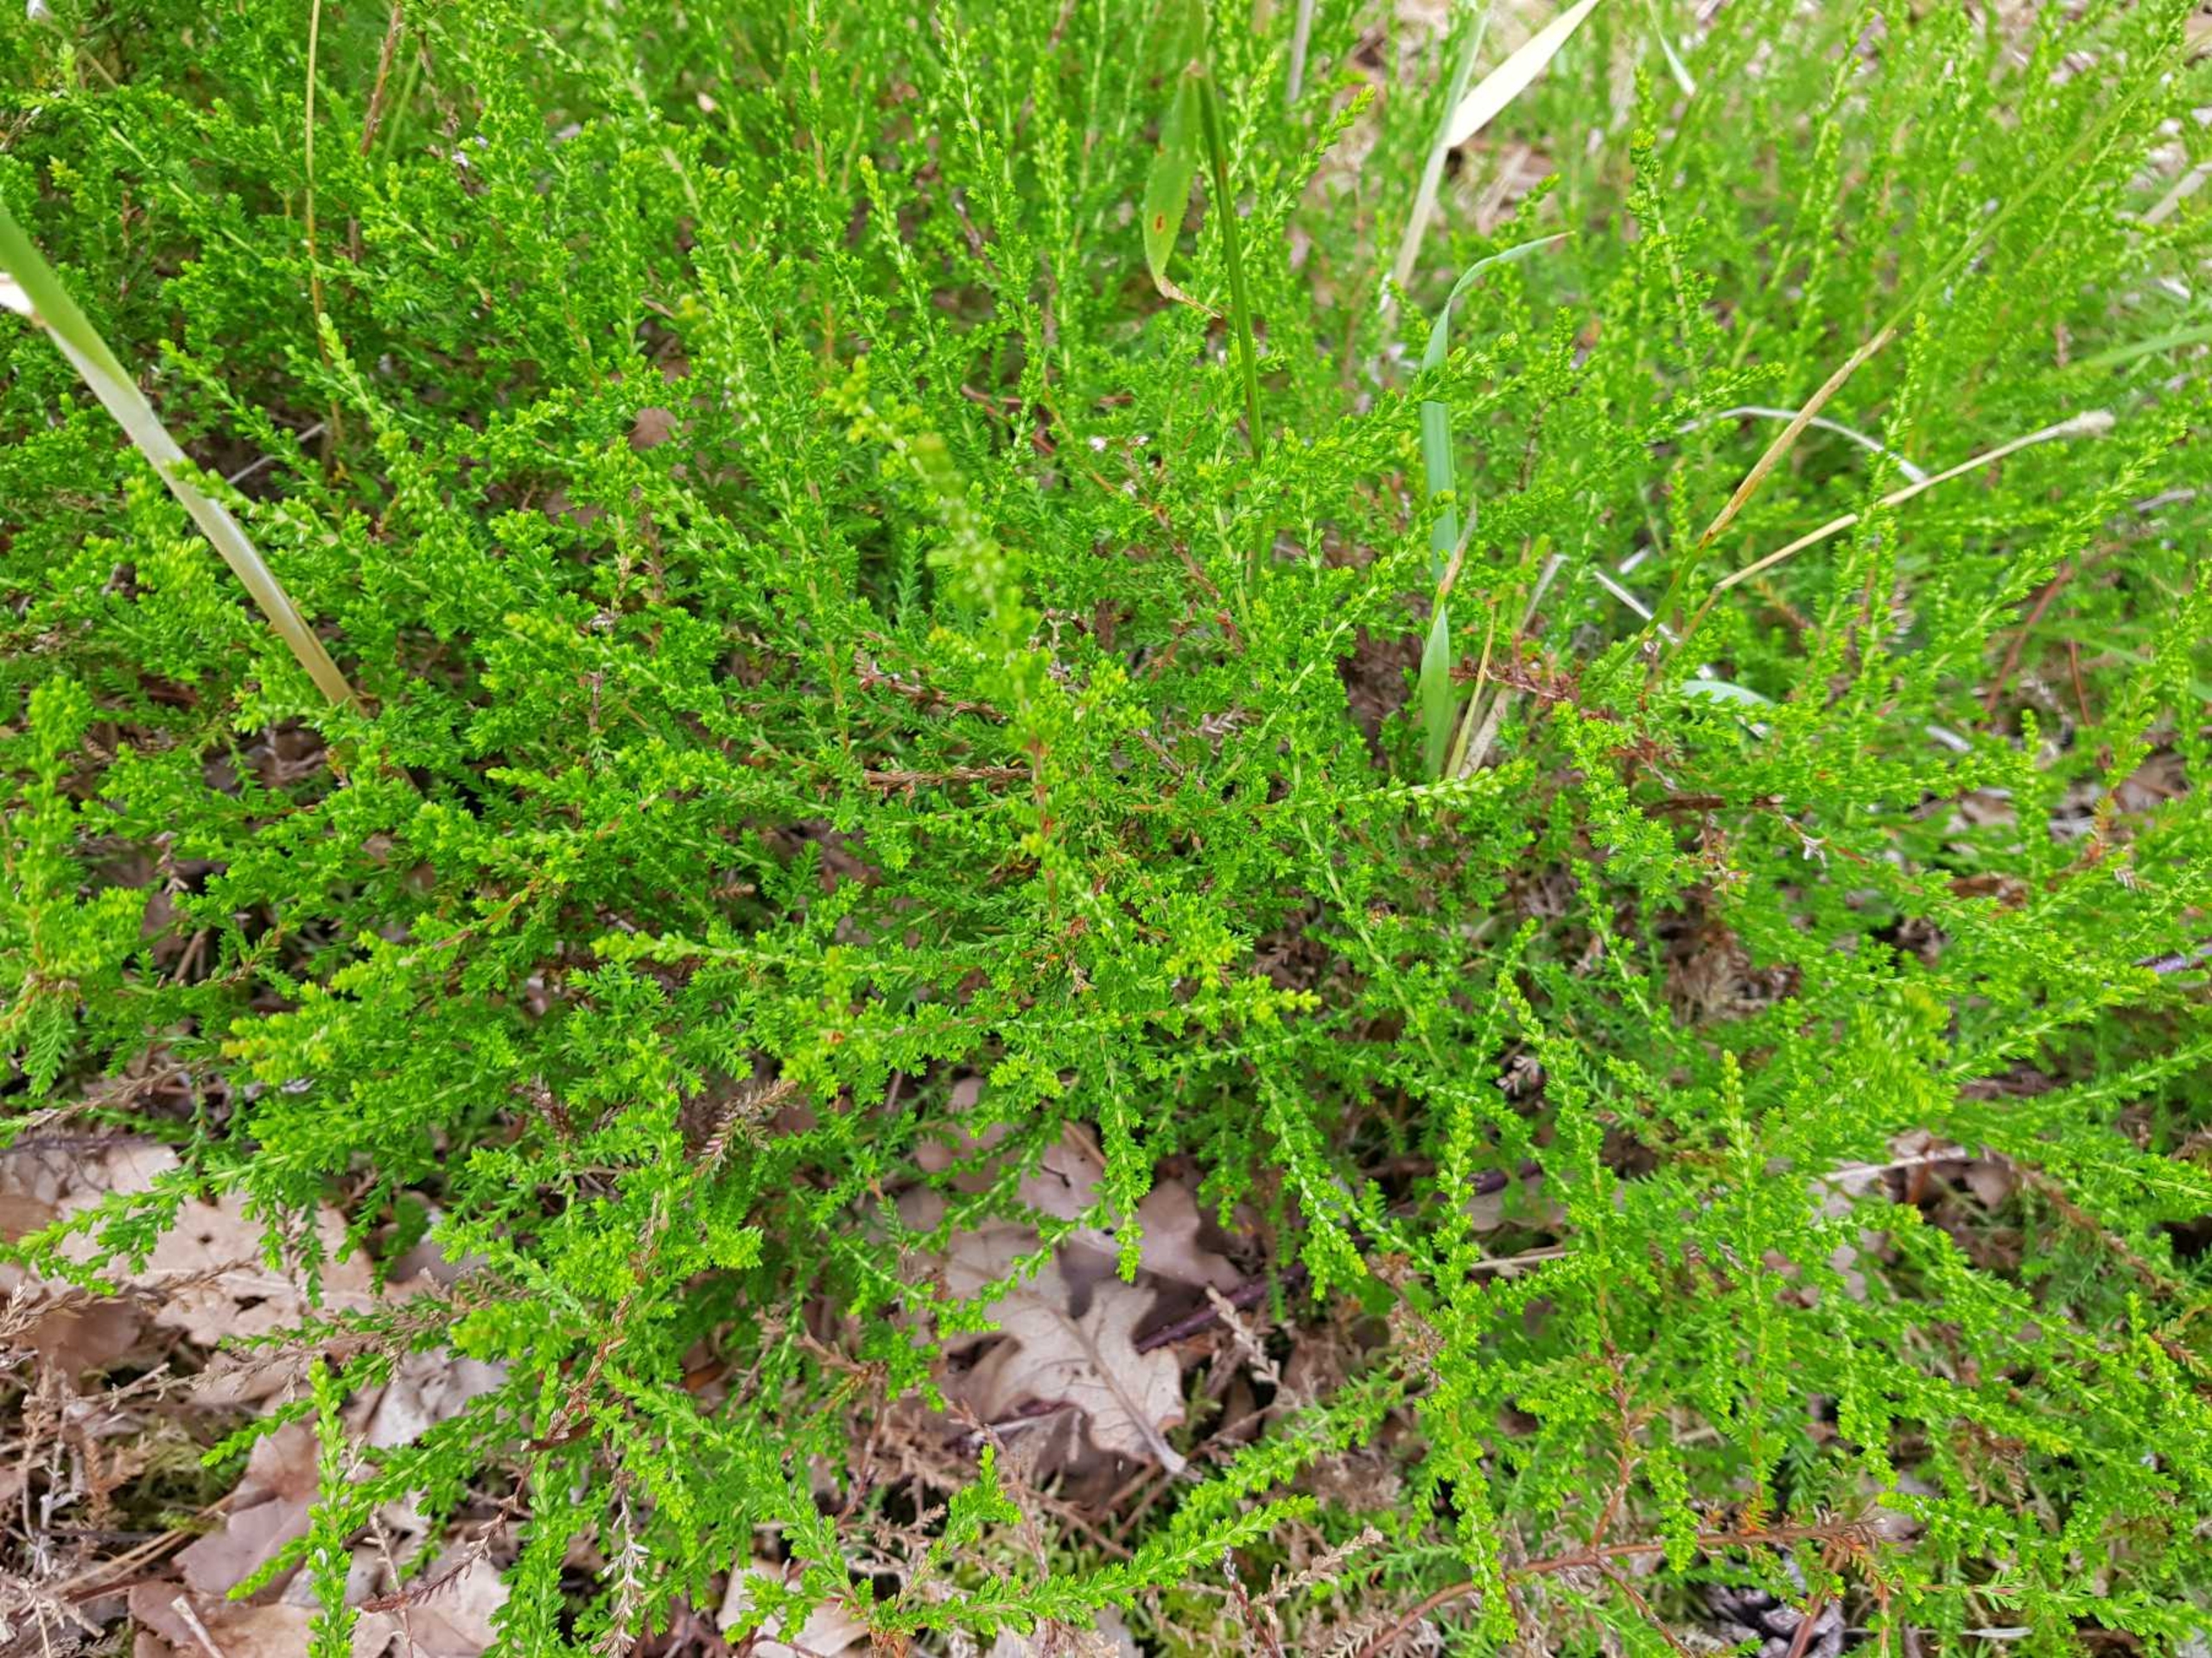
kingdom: Plantae
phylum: Tracheophyta
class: Magnoliopsida
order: Ericales
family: Ericaceae
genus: Calluna
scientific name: Calluna vulgaris
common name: Hedelyng
